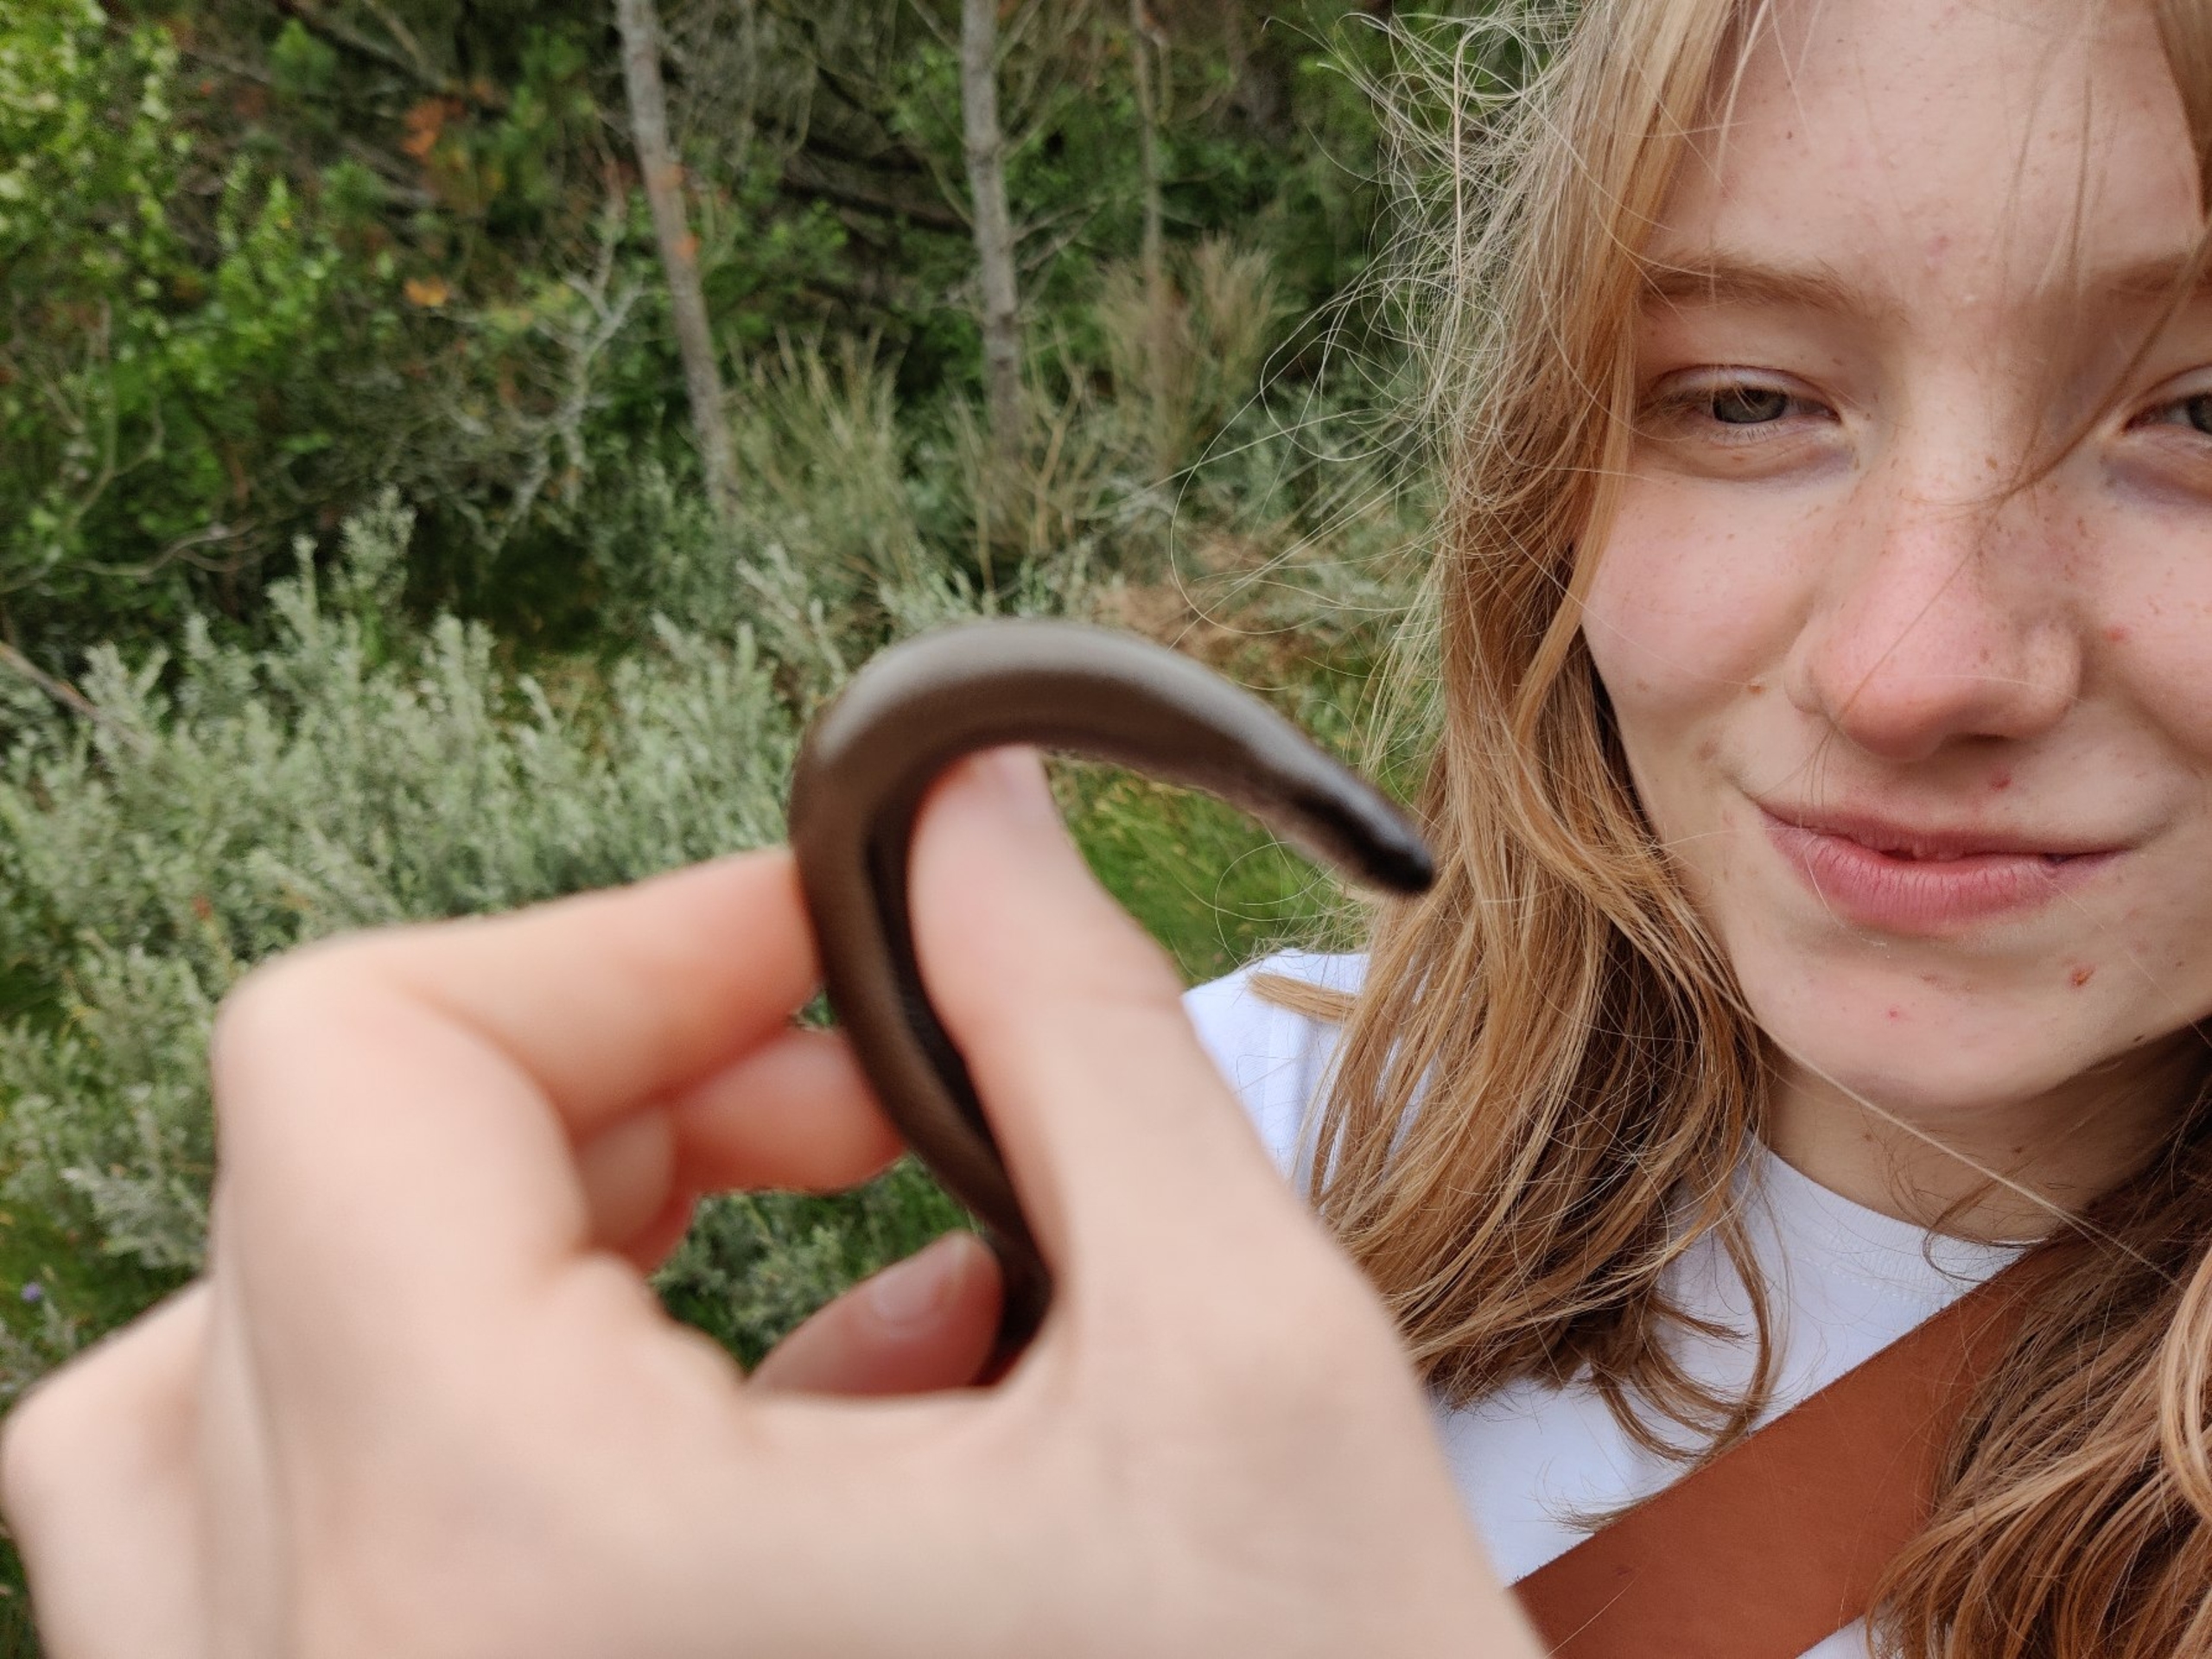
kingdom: Animalia
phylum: Chordata
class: Squamata
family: Anguidae
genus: Anguis
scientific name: Anguis fragilis
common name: Stålorm
